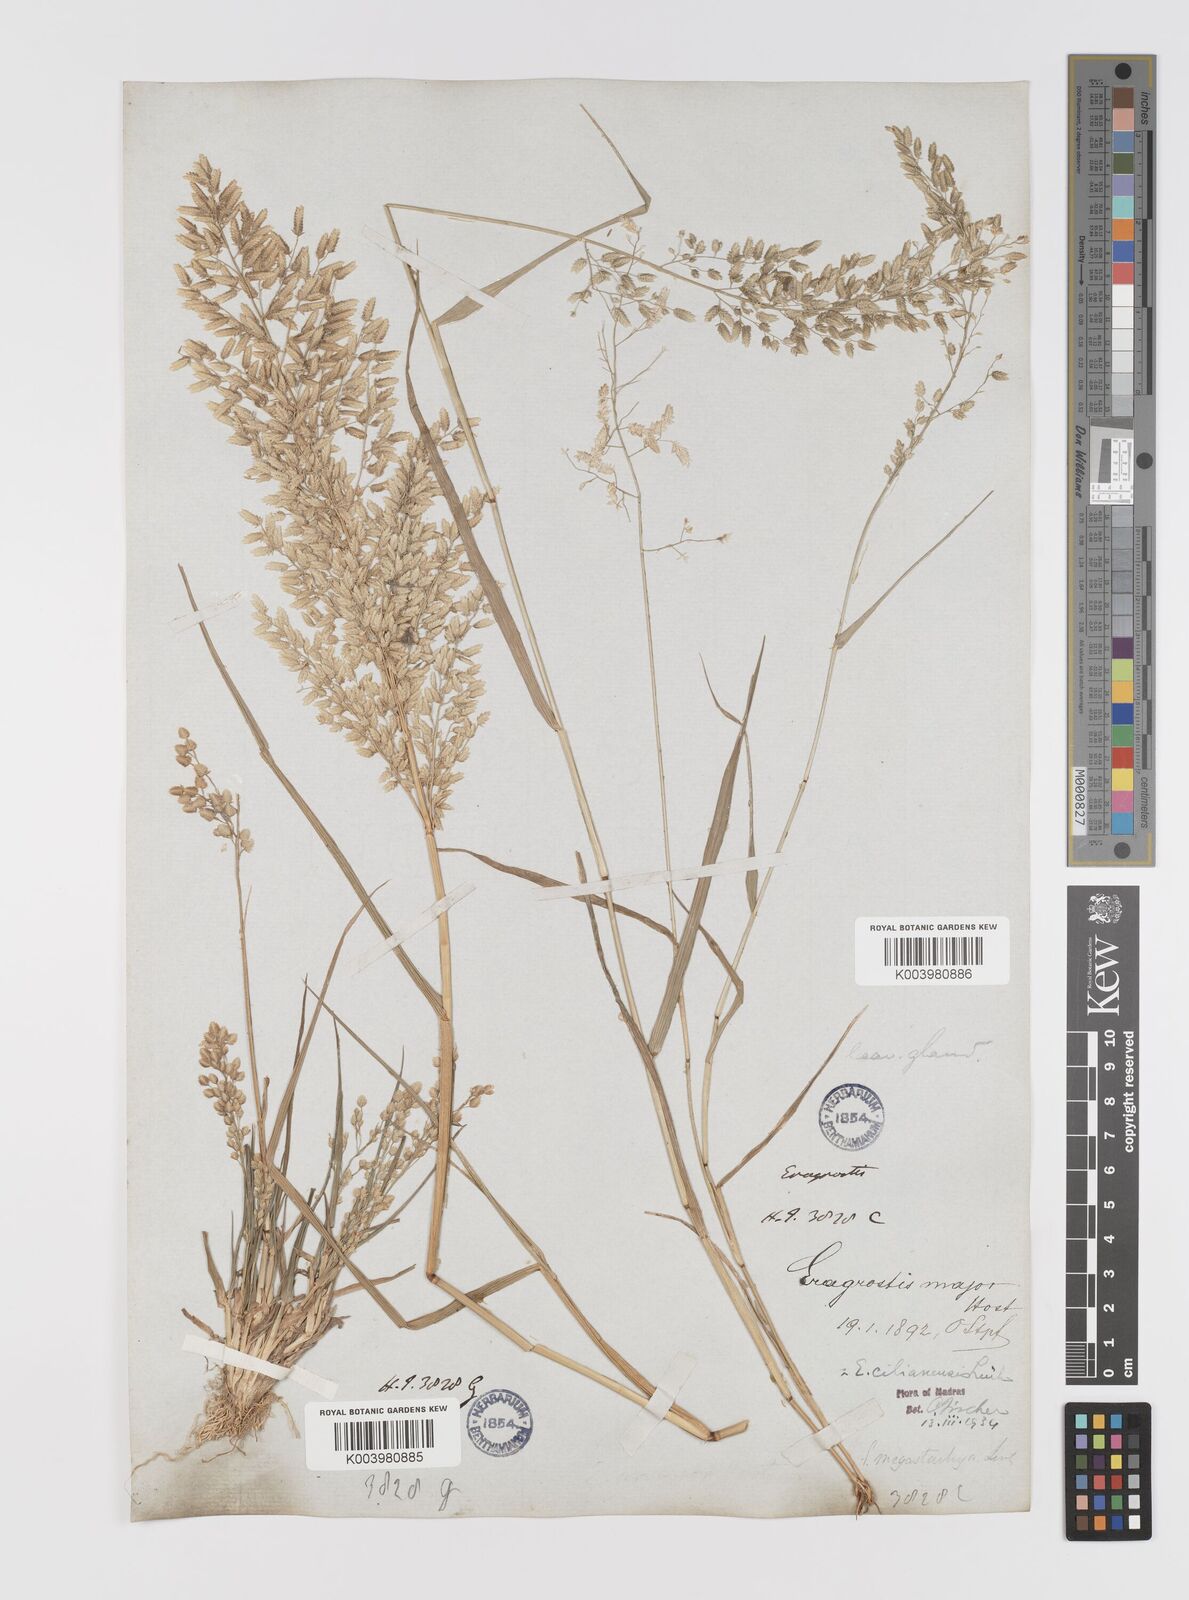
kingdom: Plantae
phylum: Tracheophyta
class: Liliopsida
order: Poales
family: Poaceae
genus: Eragrostis
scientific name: Eragrostis cilianensis
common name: Stinkgrass
